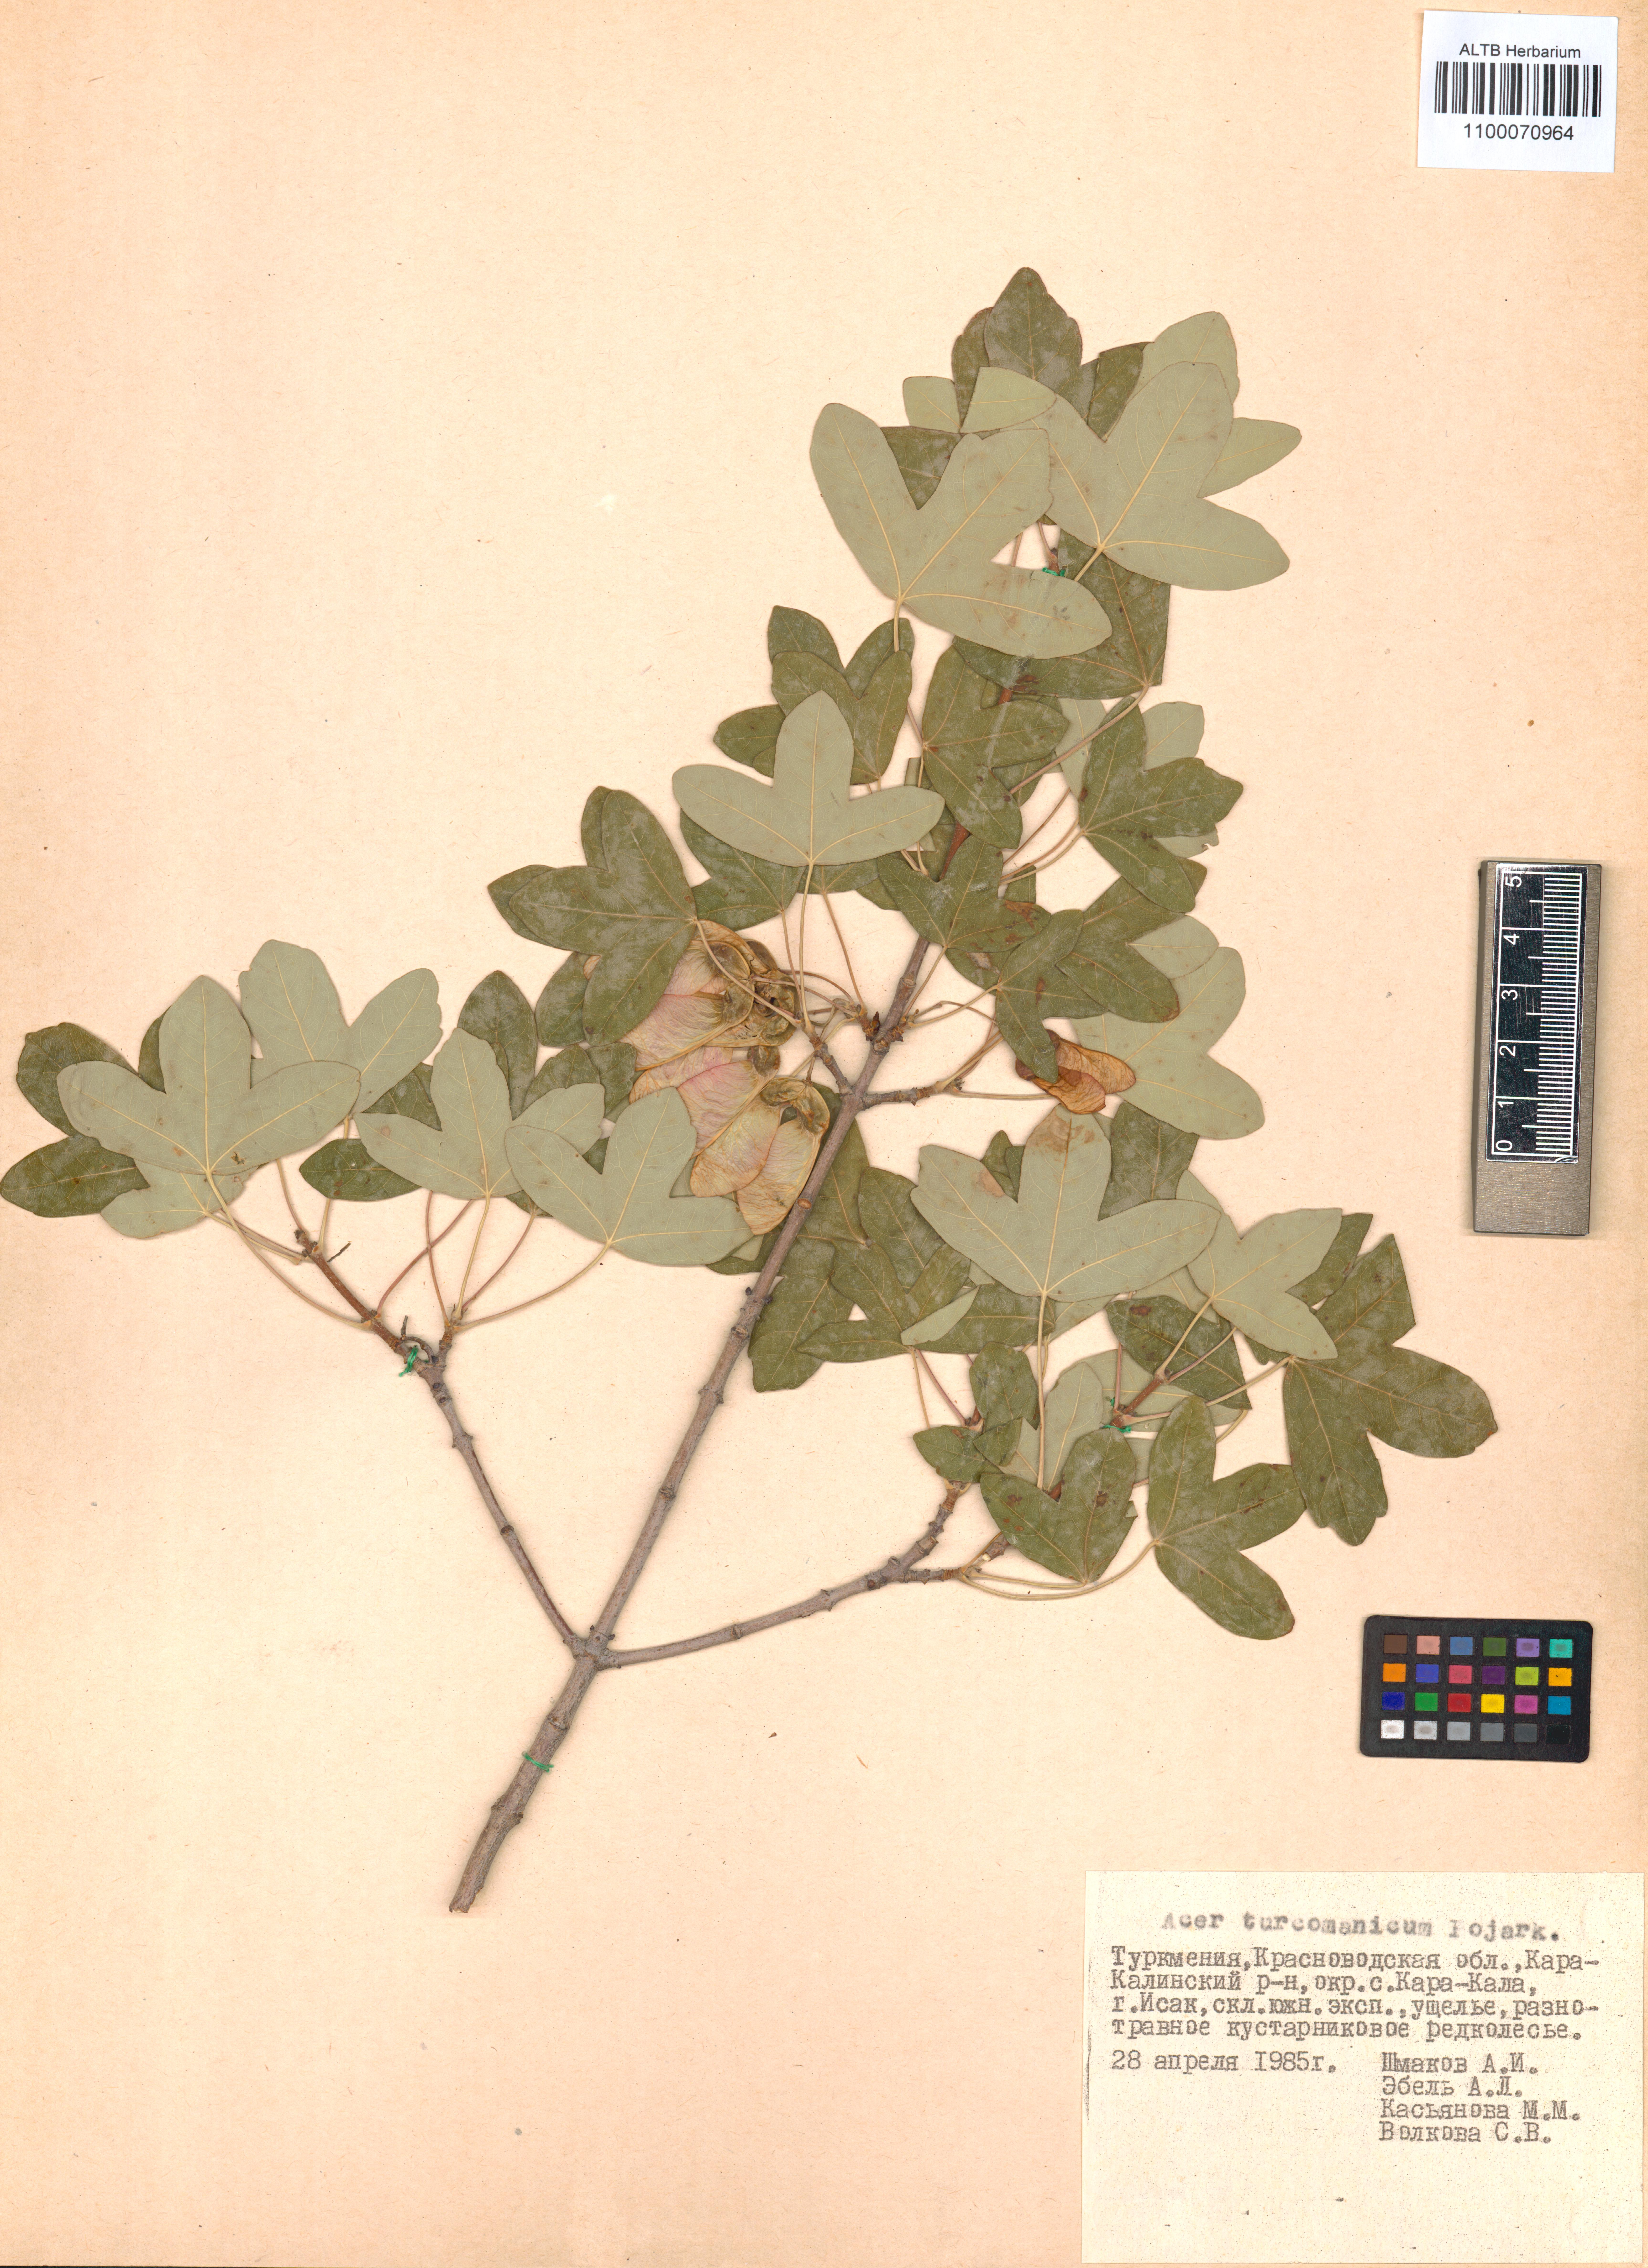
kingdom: Plantae
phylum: Tracheophyta
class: Magnoliopsida
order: Sapindales
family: Sapindaceae
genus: Acer
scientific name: Acer monspessulanum
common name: Montpellier maple
